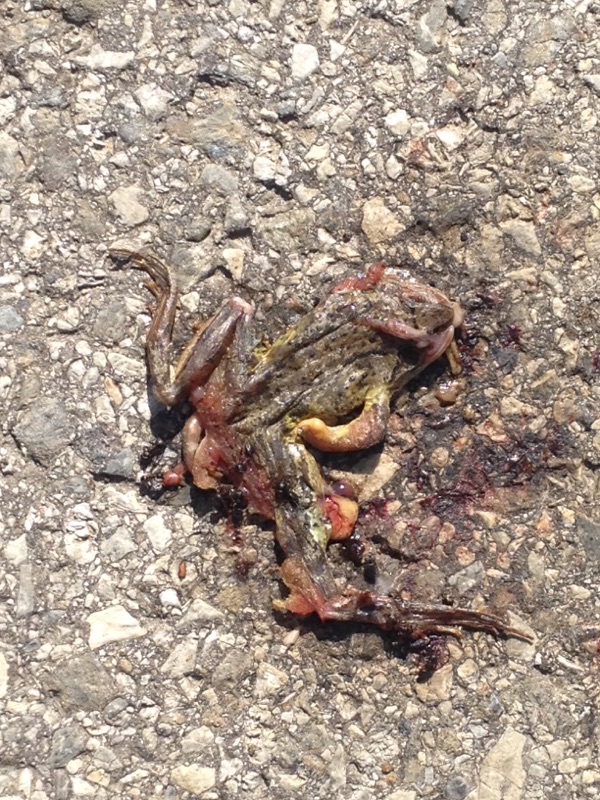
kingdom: Animalia
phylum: Chordata
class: Amphibia
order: Anura
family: Ranidae
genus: Rana
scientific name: Rana temporaria
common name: Common frog
